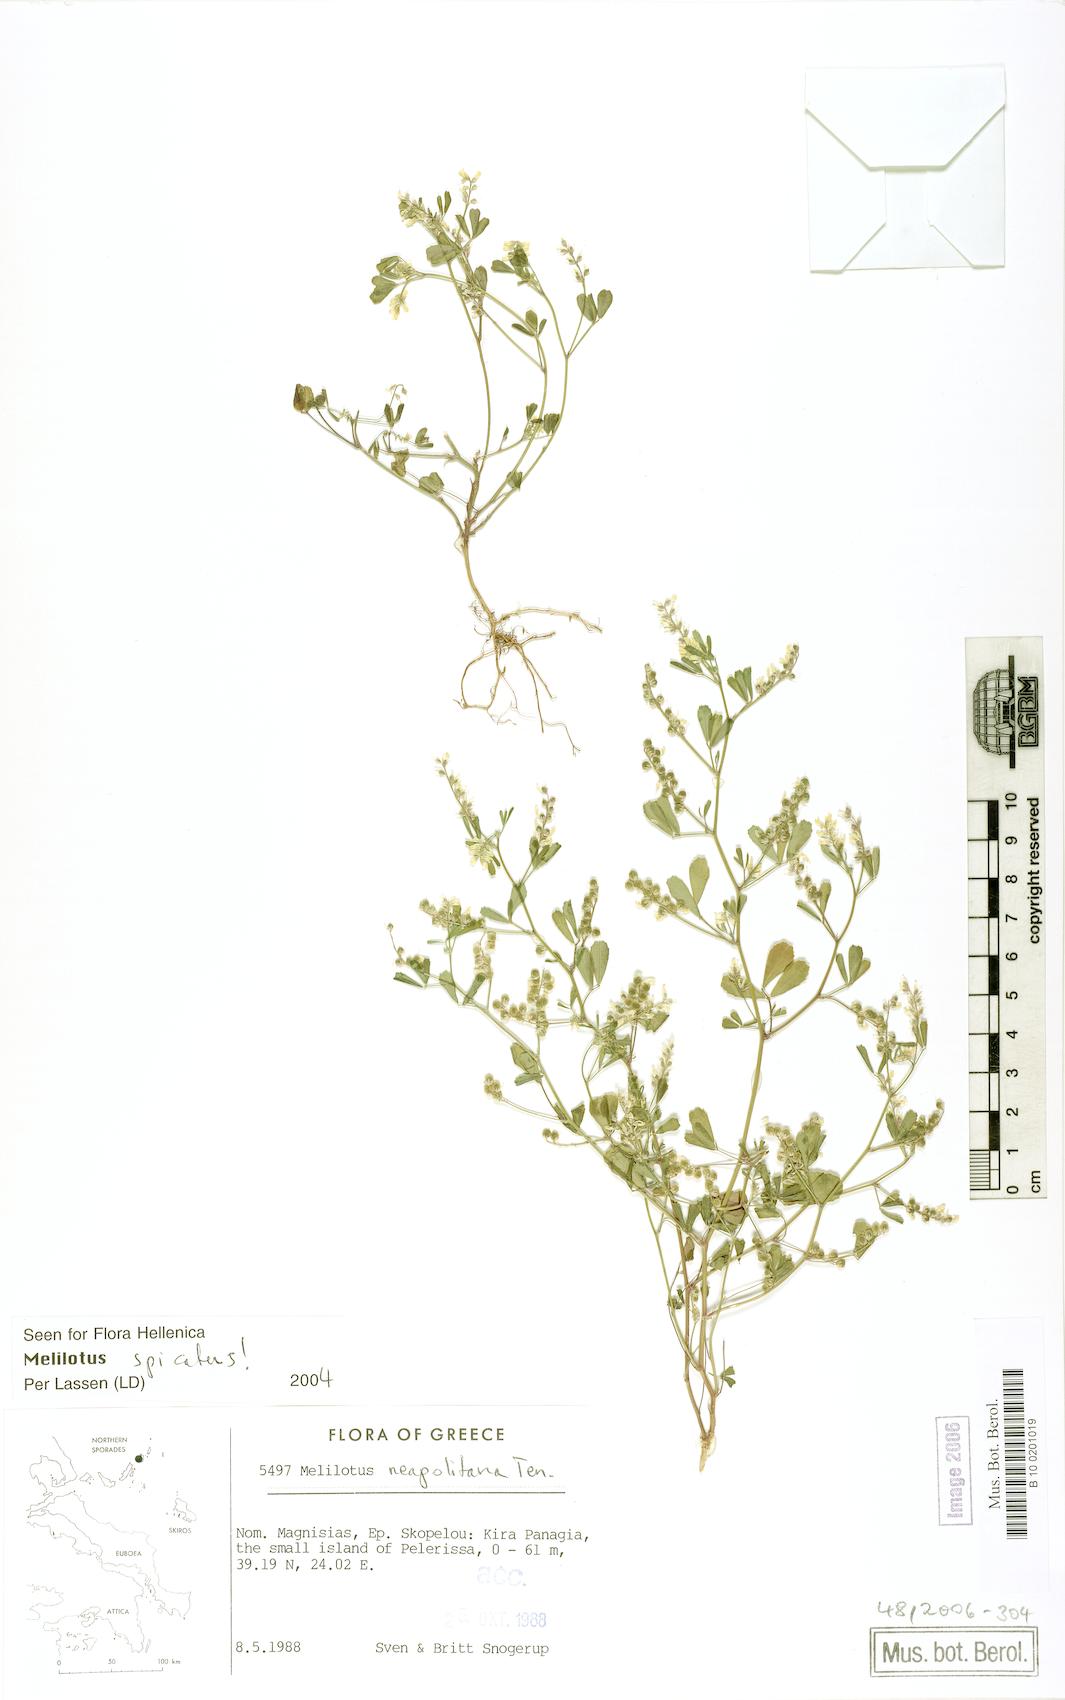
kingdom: Plantae
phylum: Tracheophyta
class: Magnoliopsida
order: Fabales
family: Fabaceae
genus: Melilotus
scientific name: Melilotus neapolitanus
